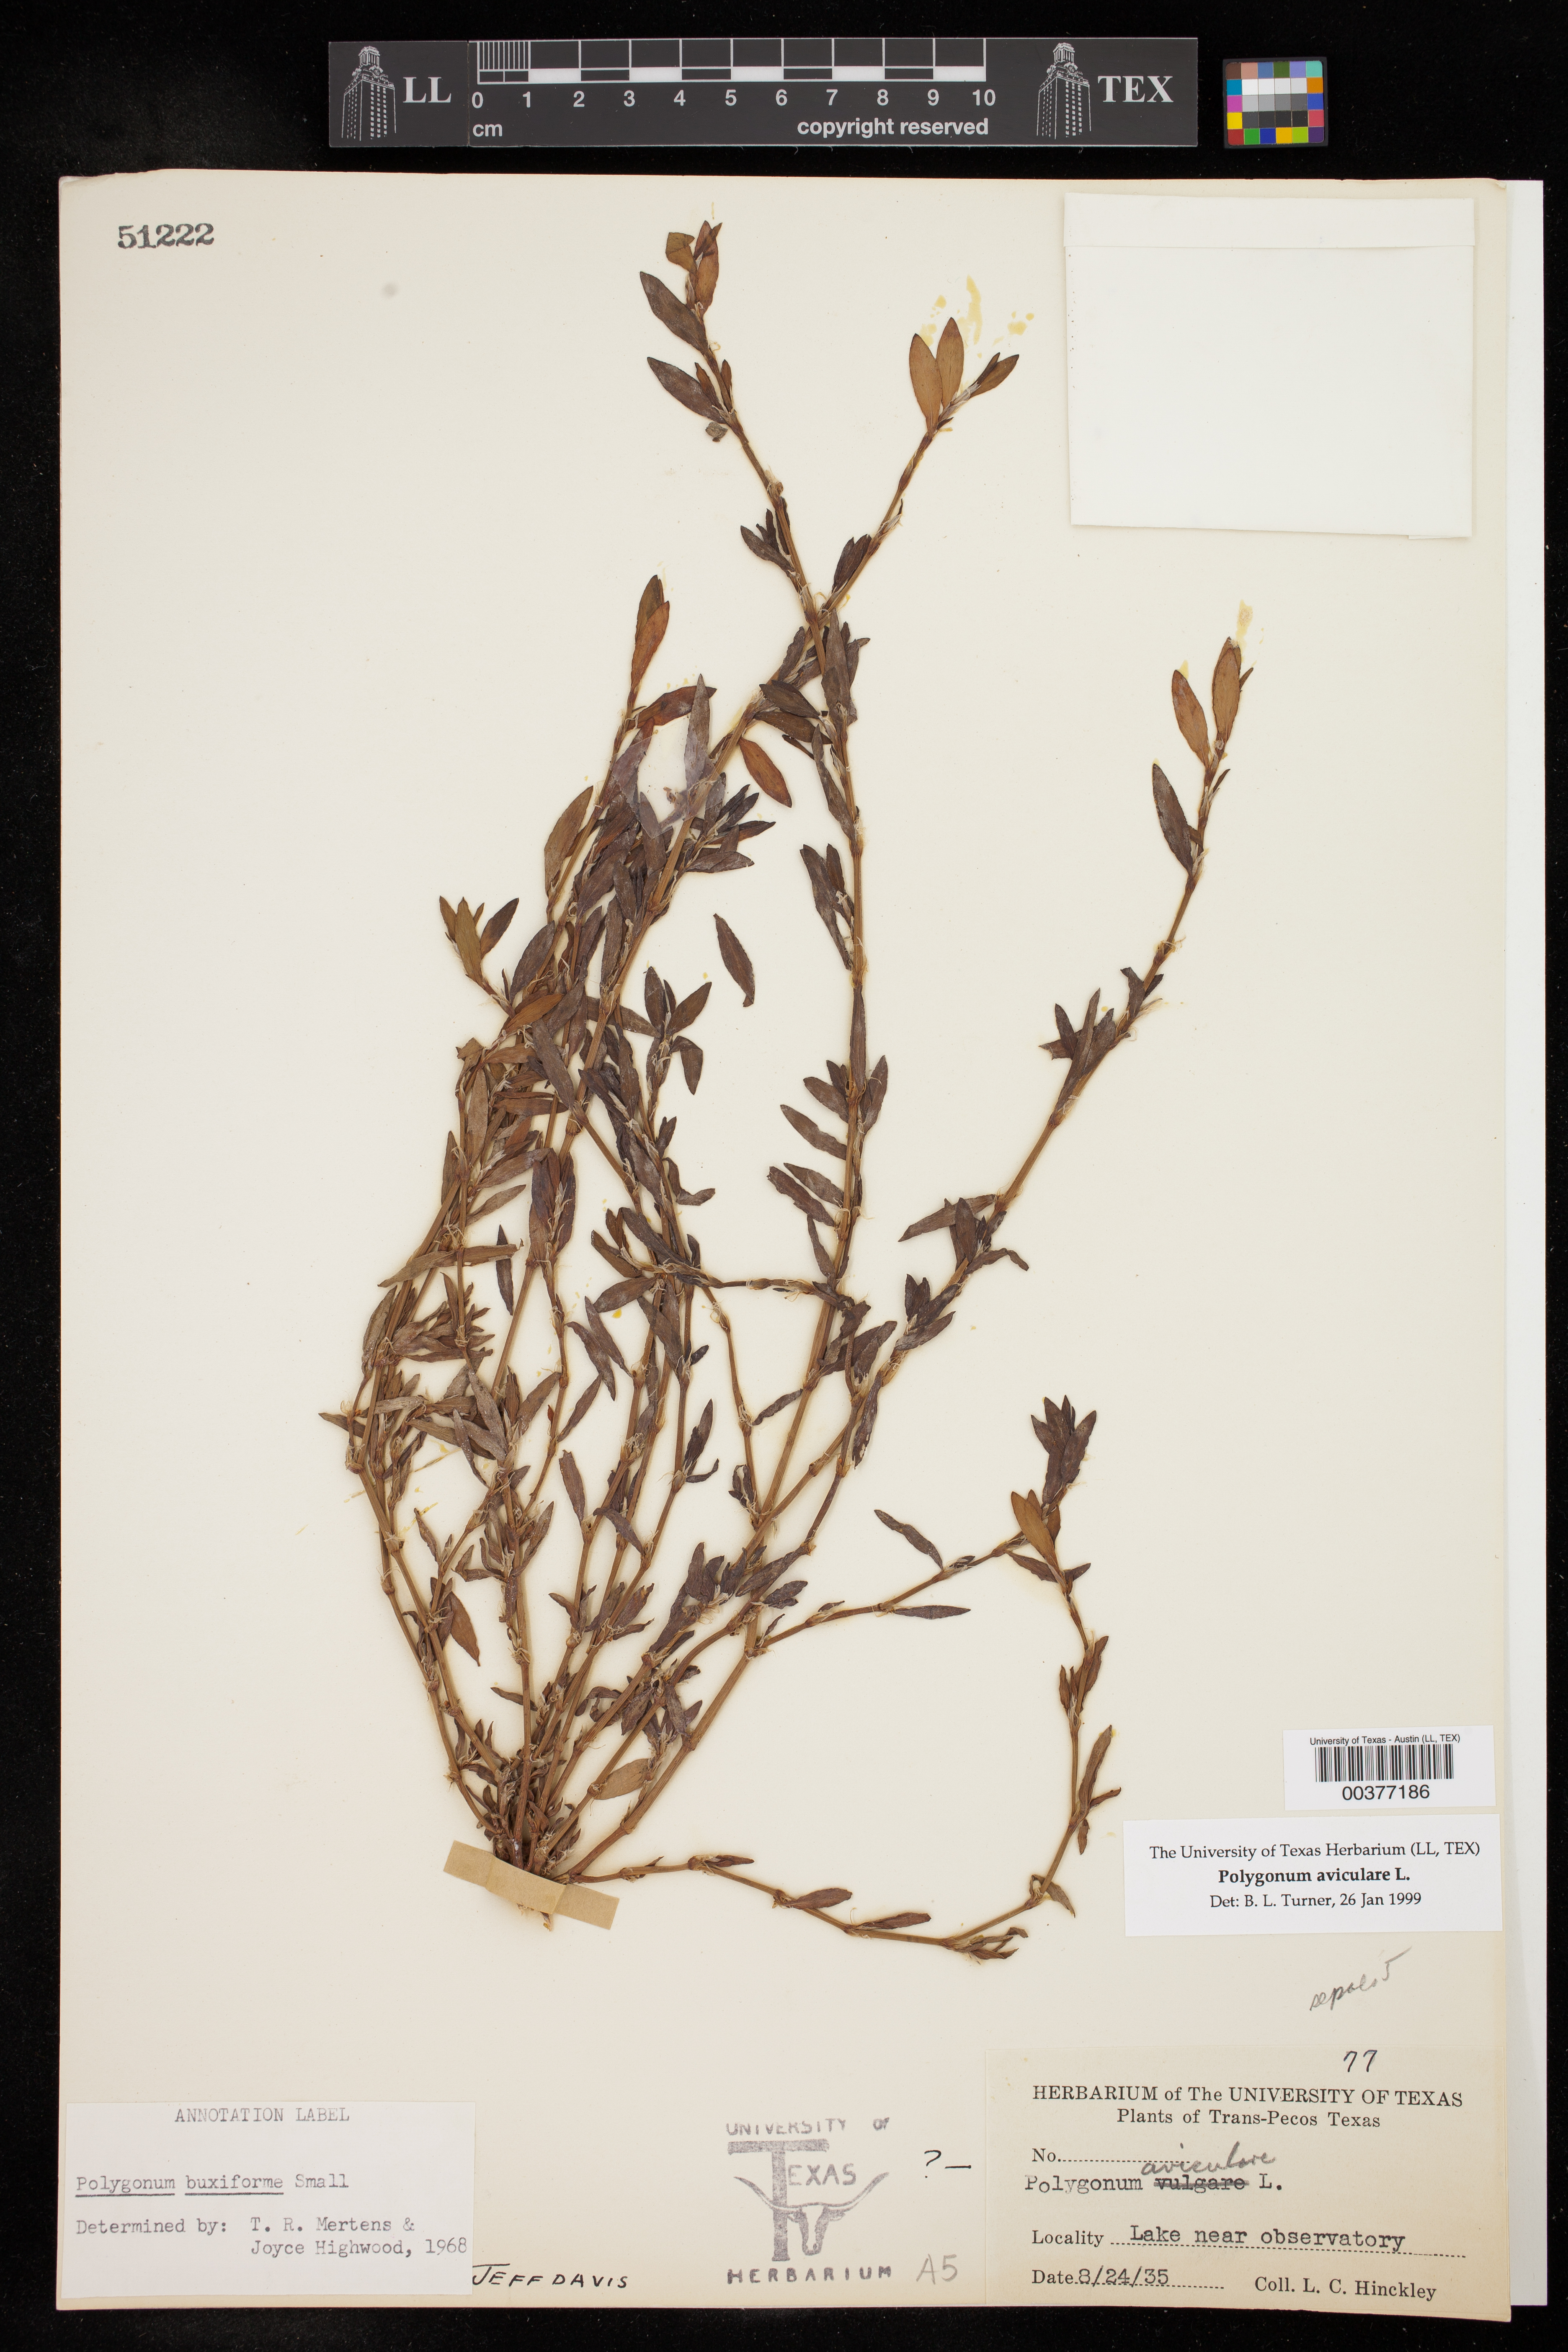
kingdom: Plantae
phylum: Tracheophyta
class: Magnoliopsida
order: Caryophyllales
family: Polygonaceae
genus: Polygonum
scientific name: Polygonum aviculare
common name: Prostrate knotweed
